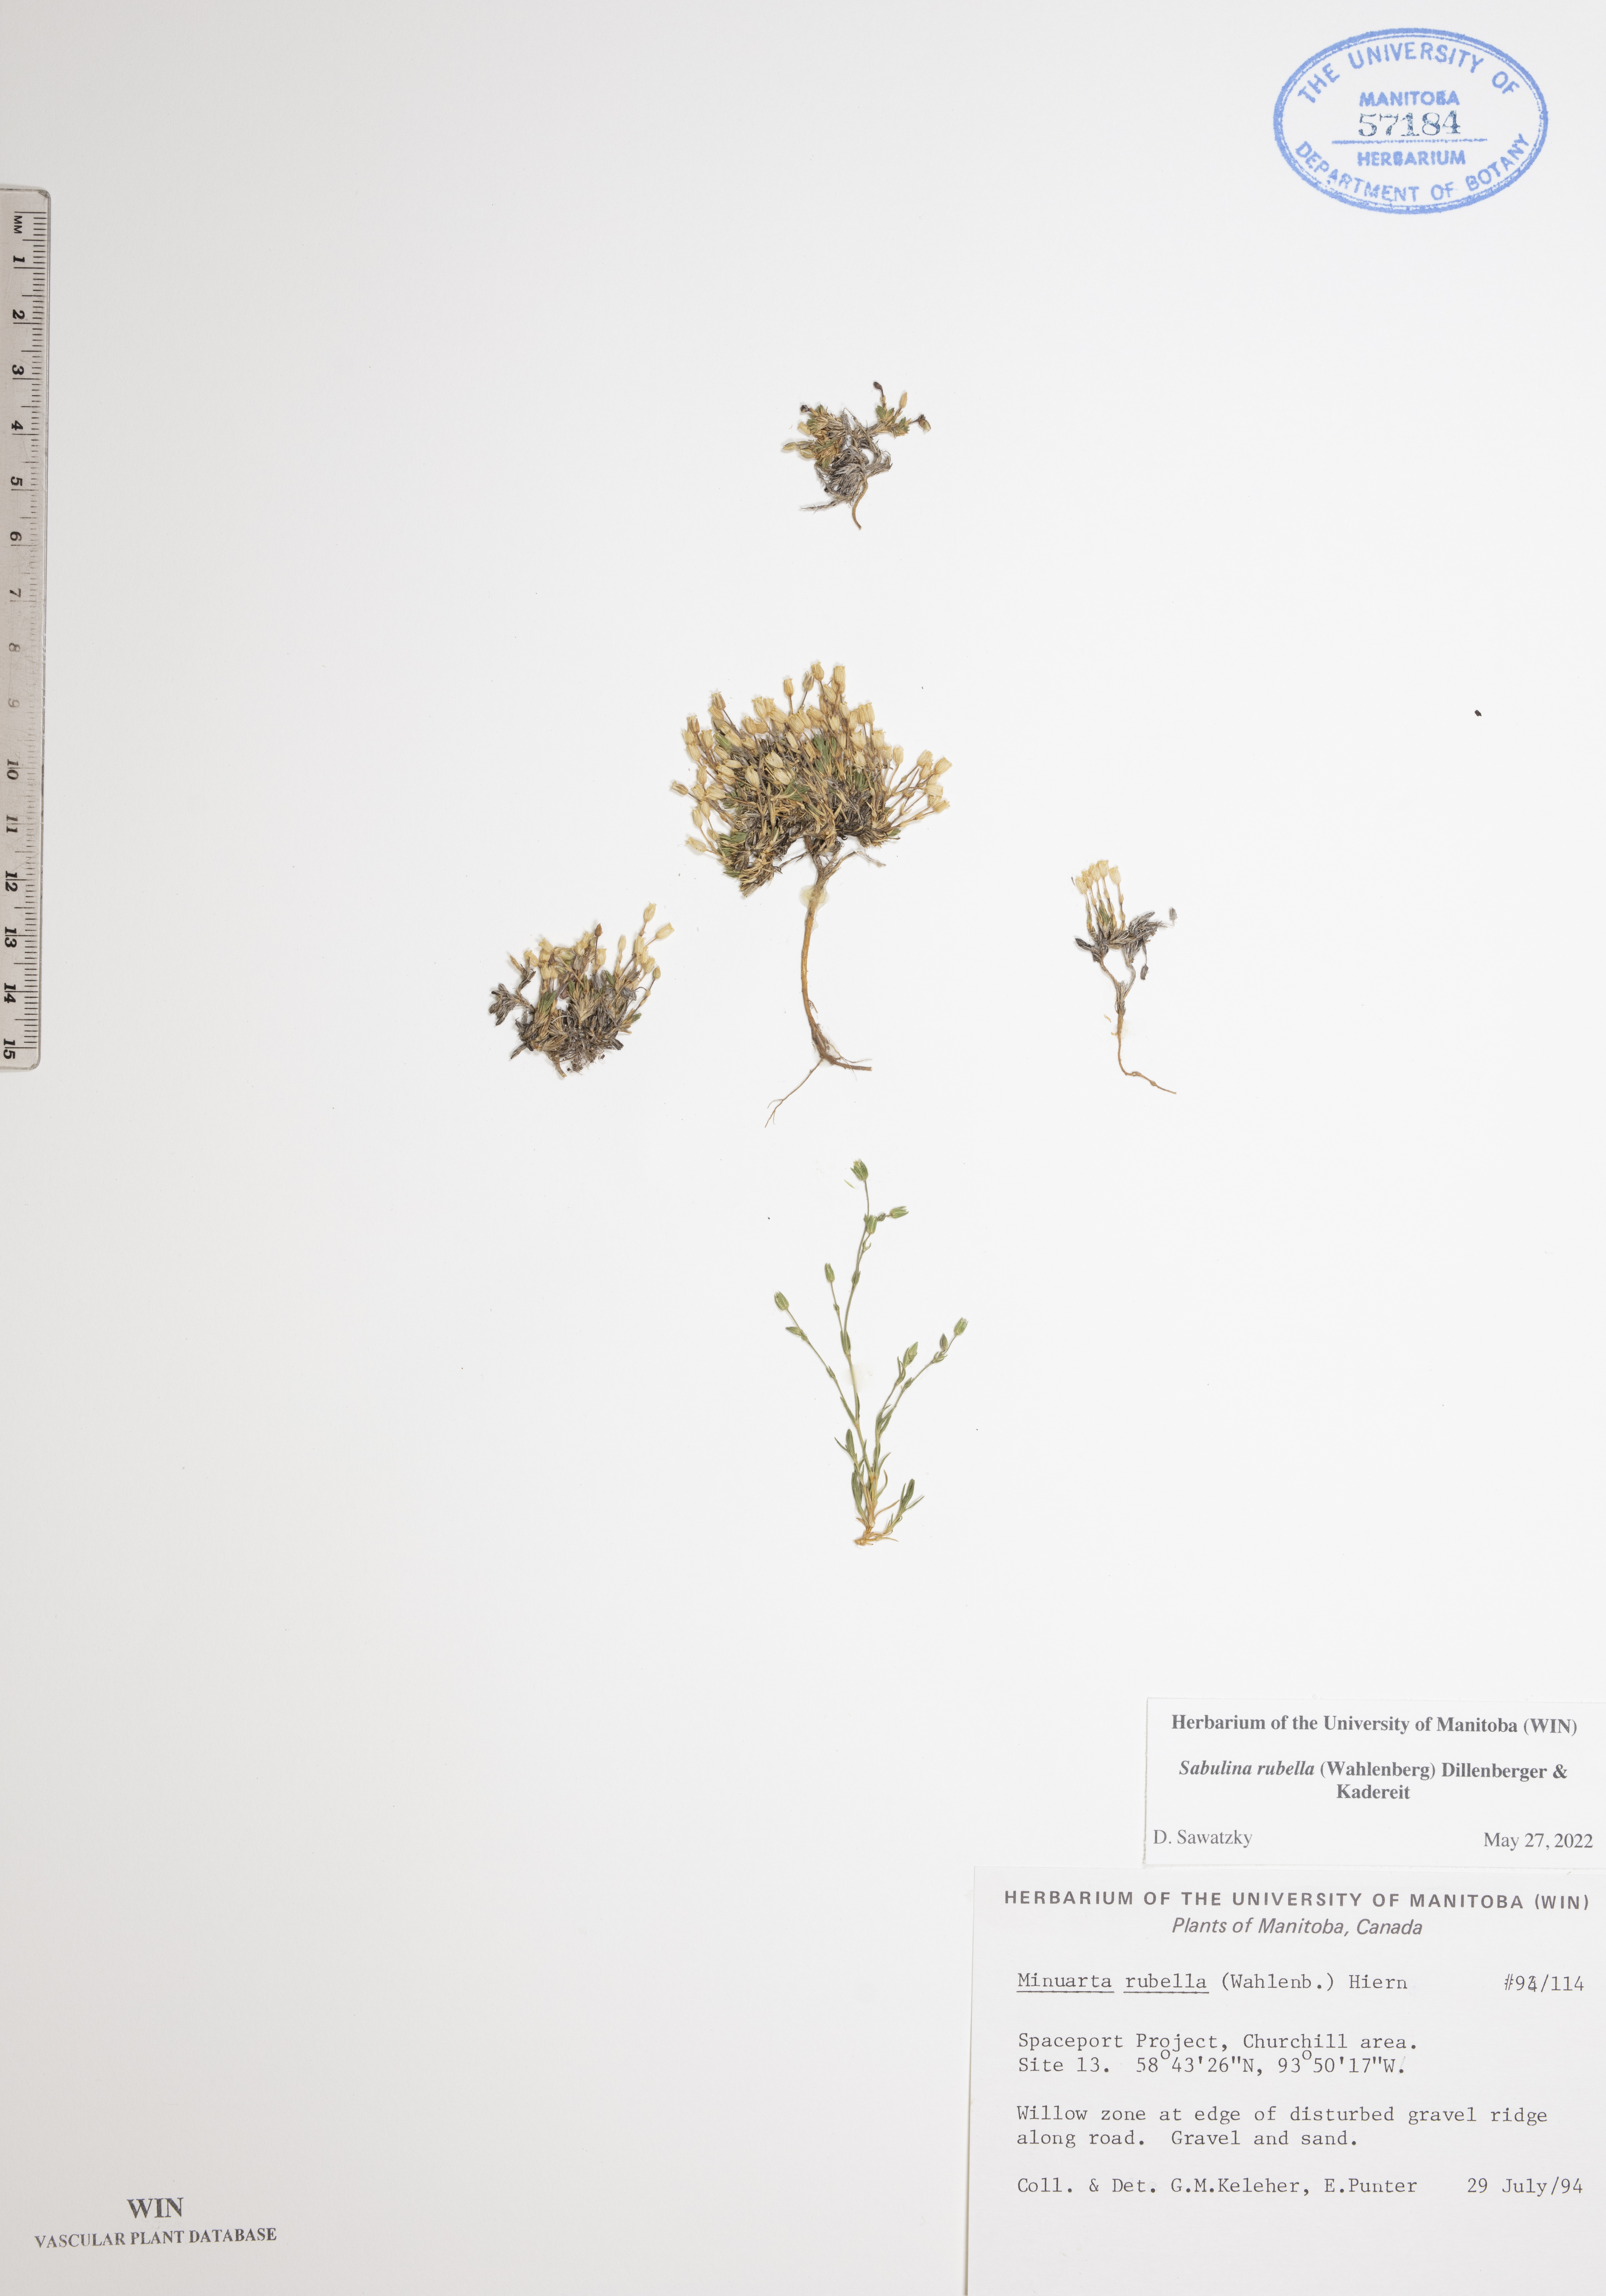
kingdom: Plantae
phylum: Tracheophyta
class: Magnoliopsida
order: Caryophyllales
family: Caryophyllaceae
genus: Sabulina
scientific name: Sabulina rubella
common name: Beautiful sandwort
